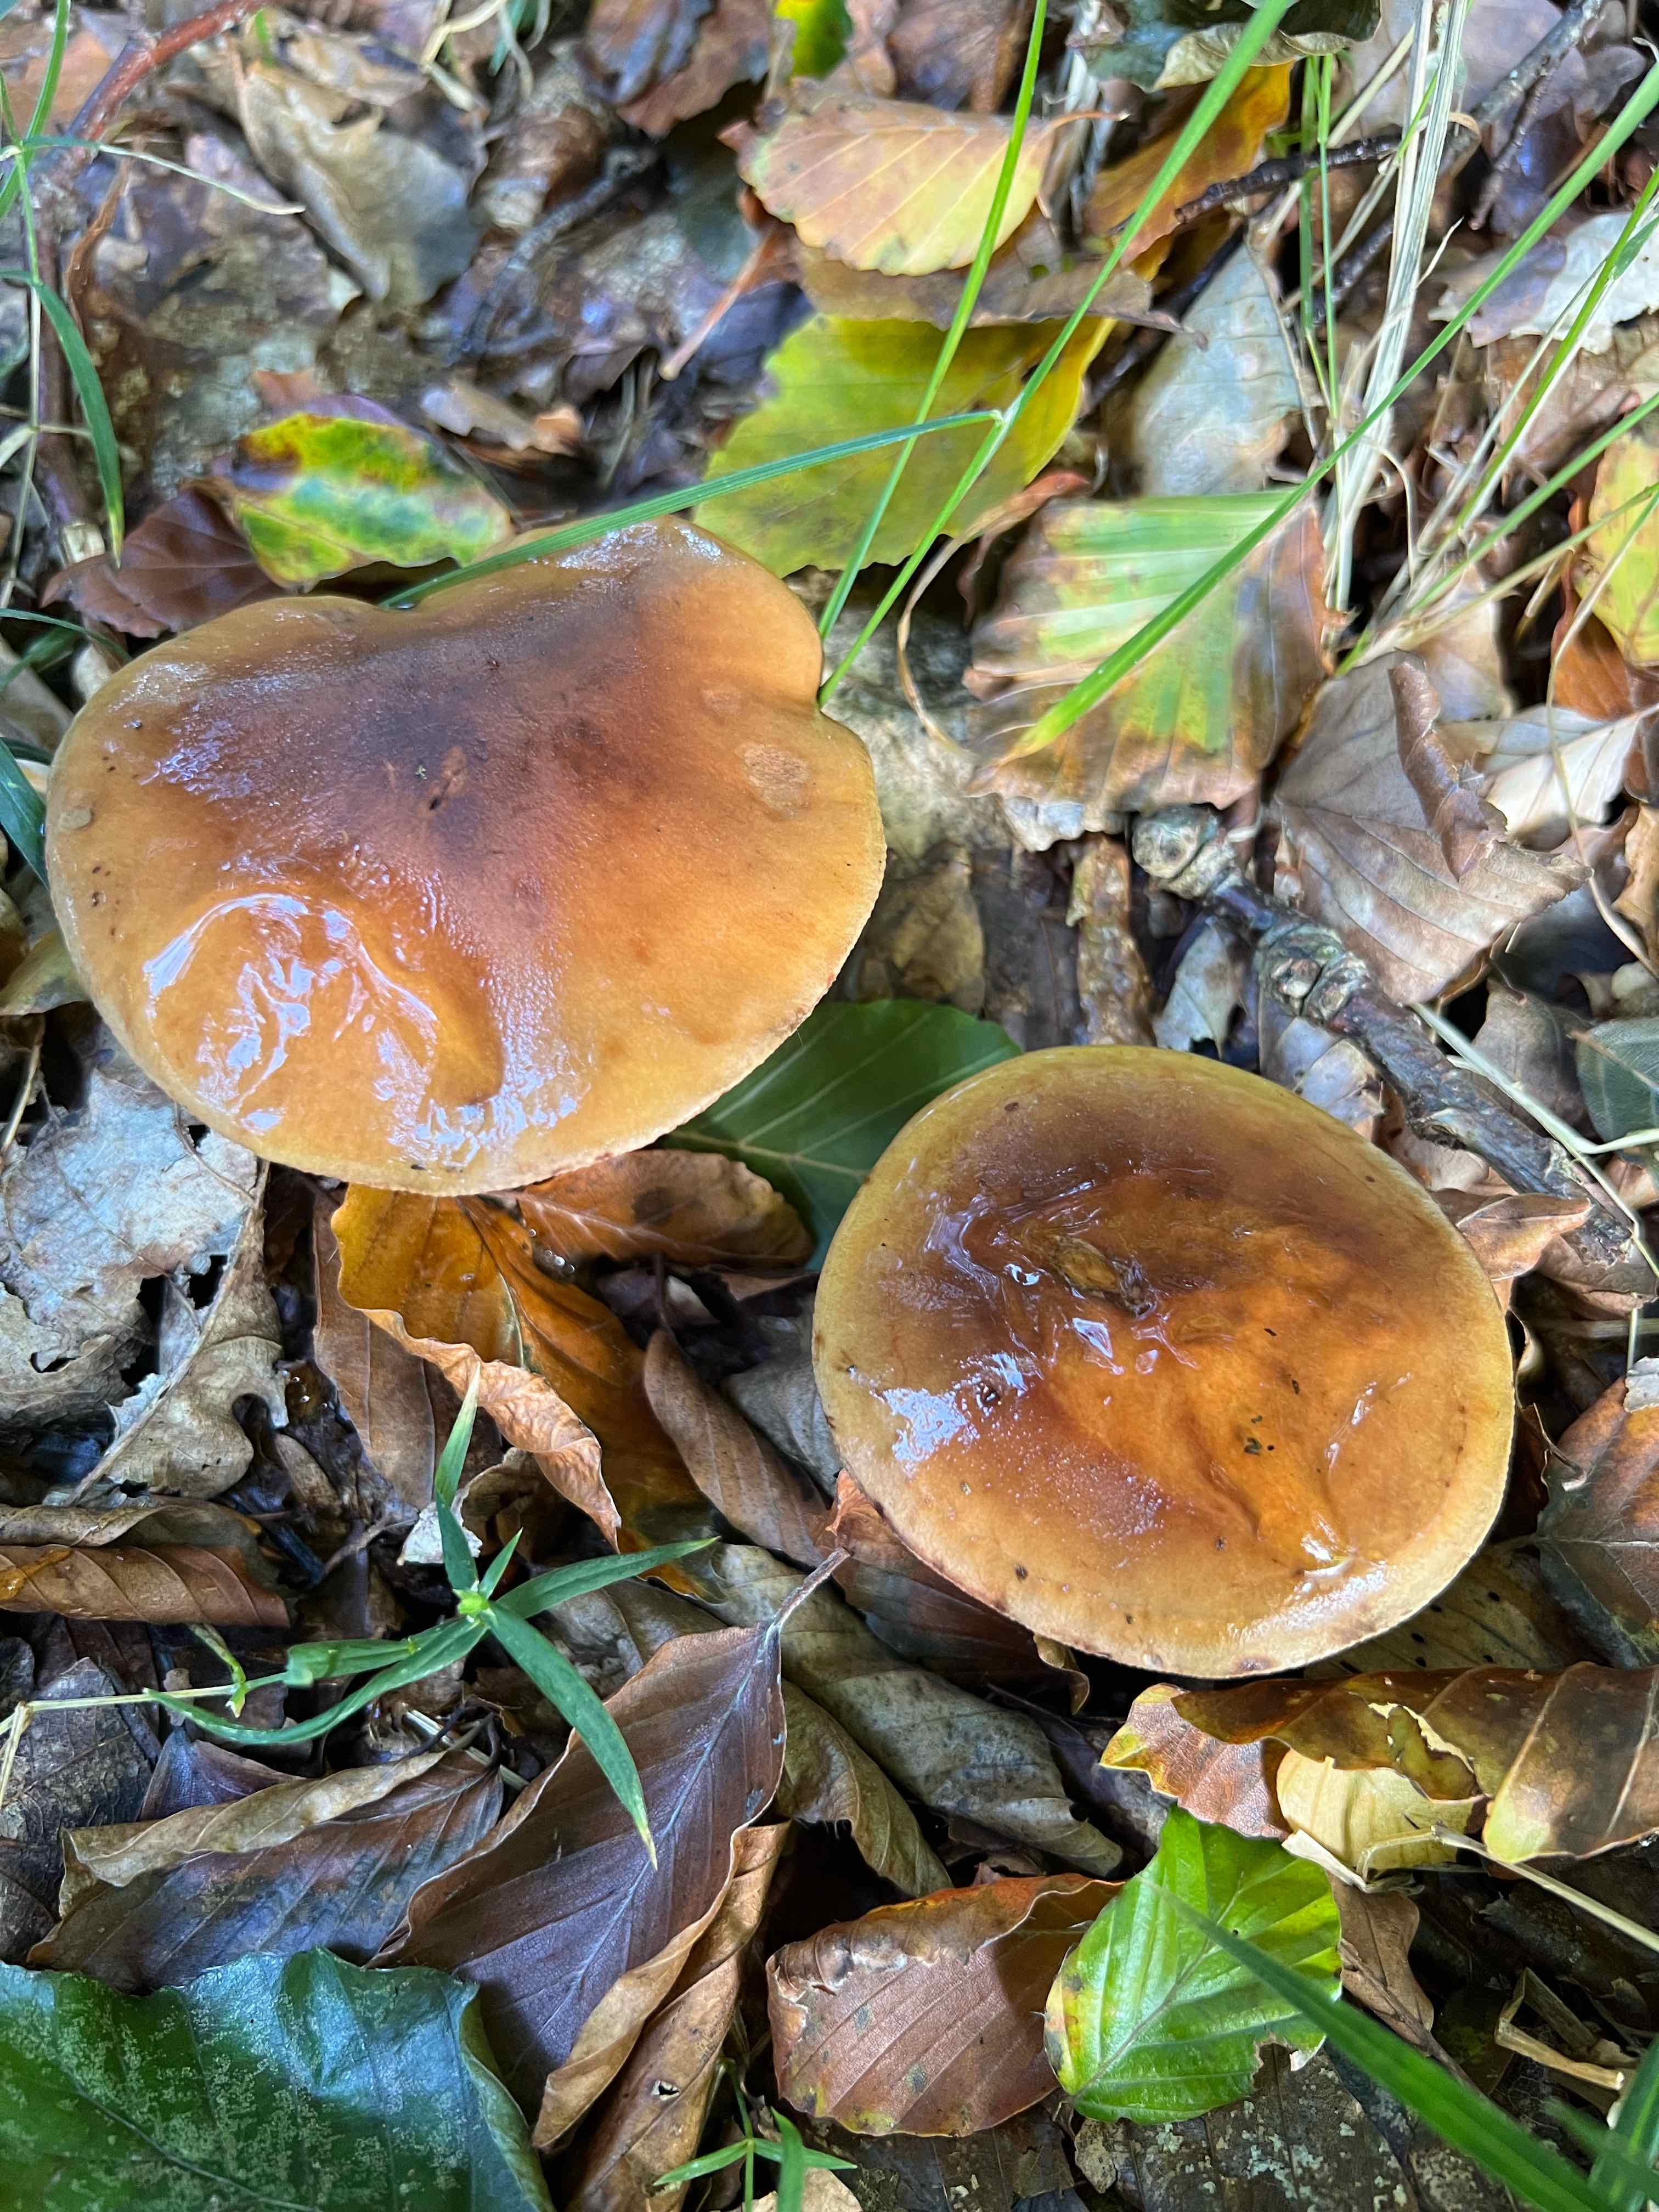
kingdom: Fungi
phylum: Basidiomycota
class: Agaricomycetes
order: Agaricales
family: Tricholomataceae
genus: Tricholoma
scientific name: Tricholoma ustale
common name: sveden ridderhat
